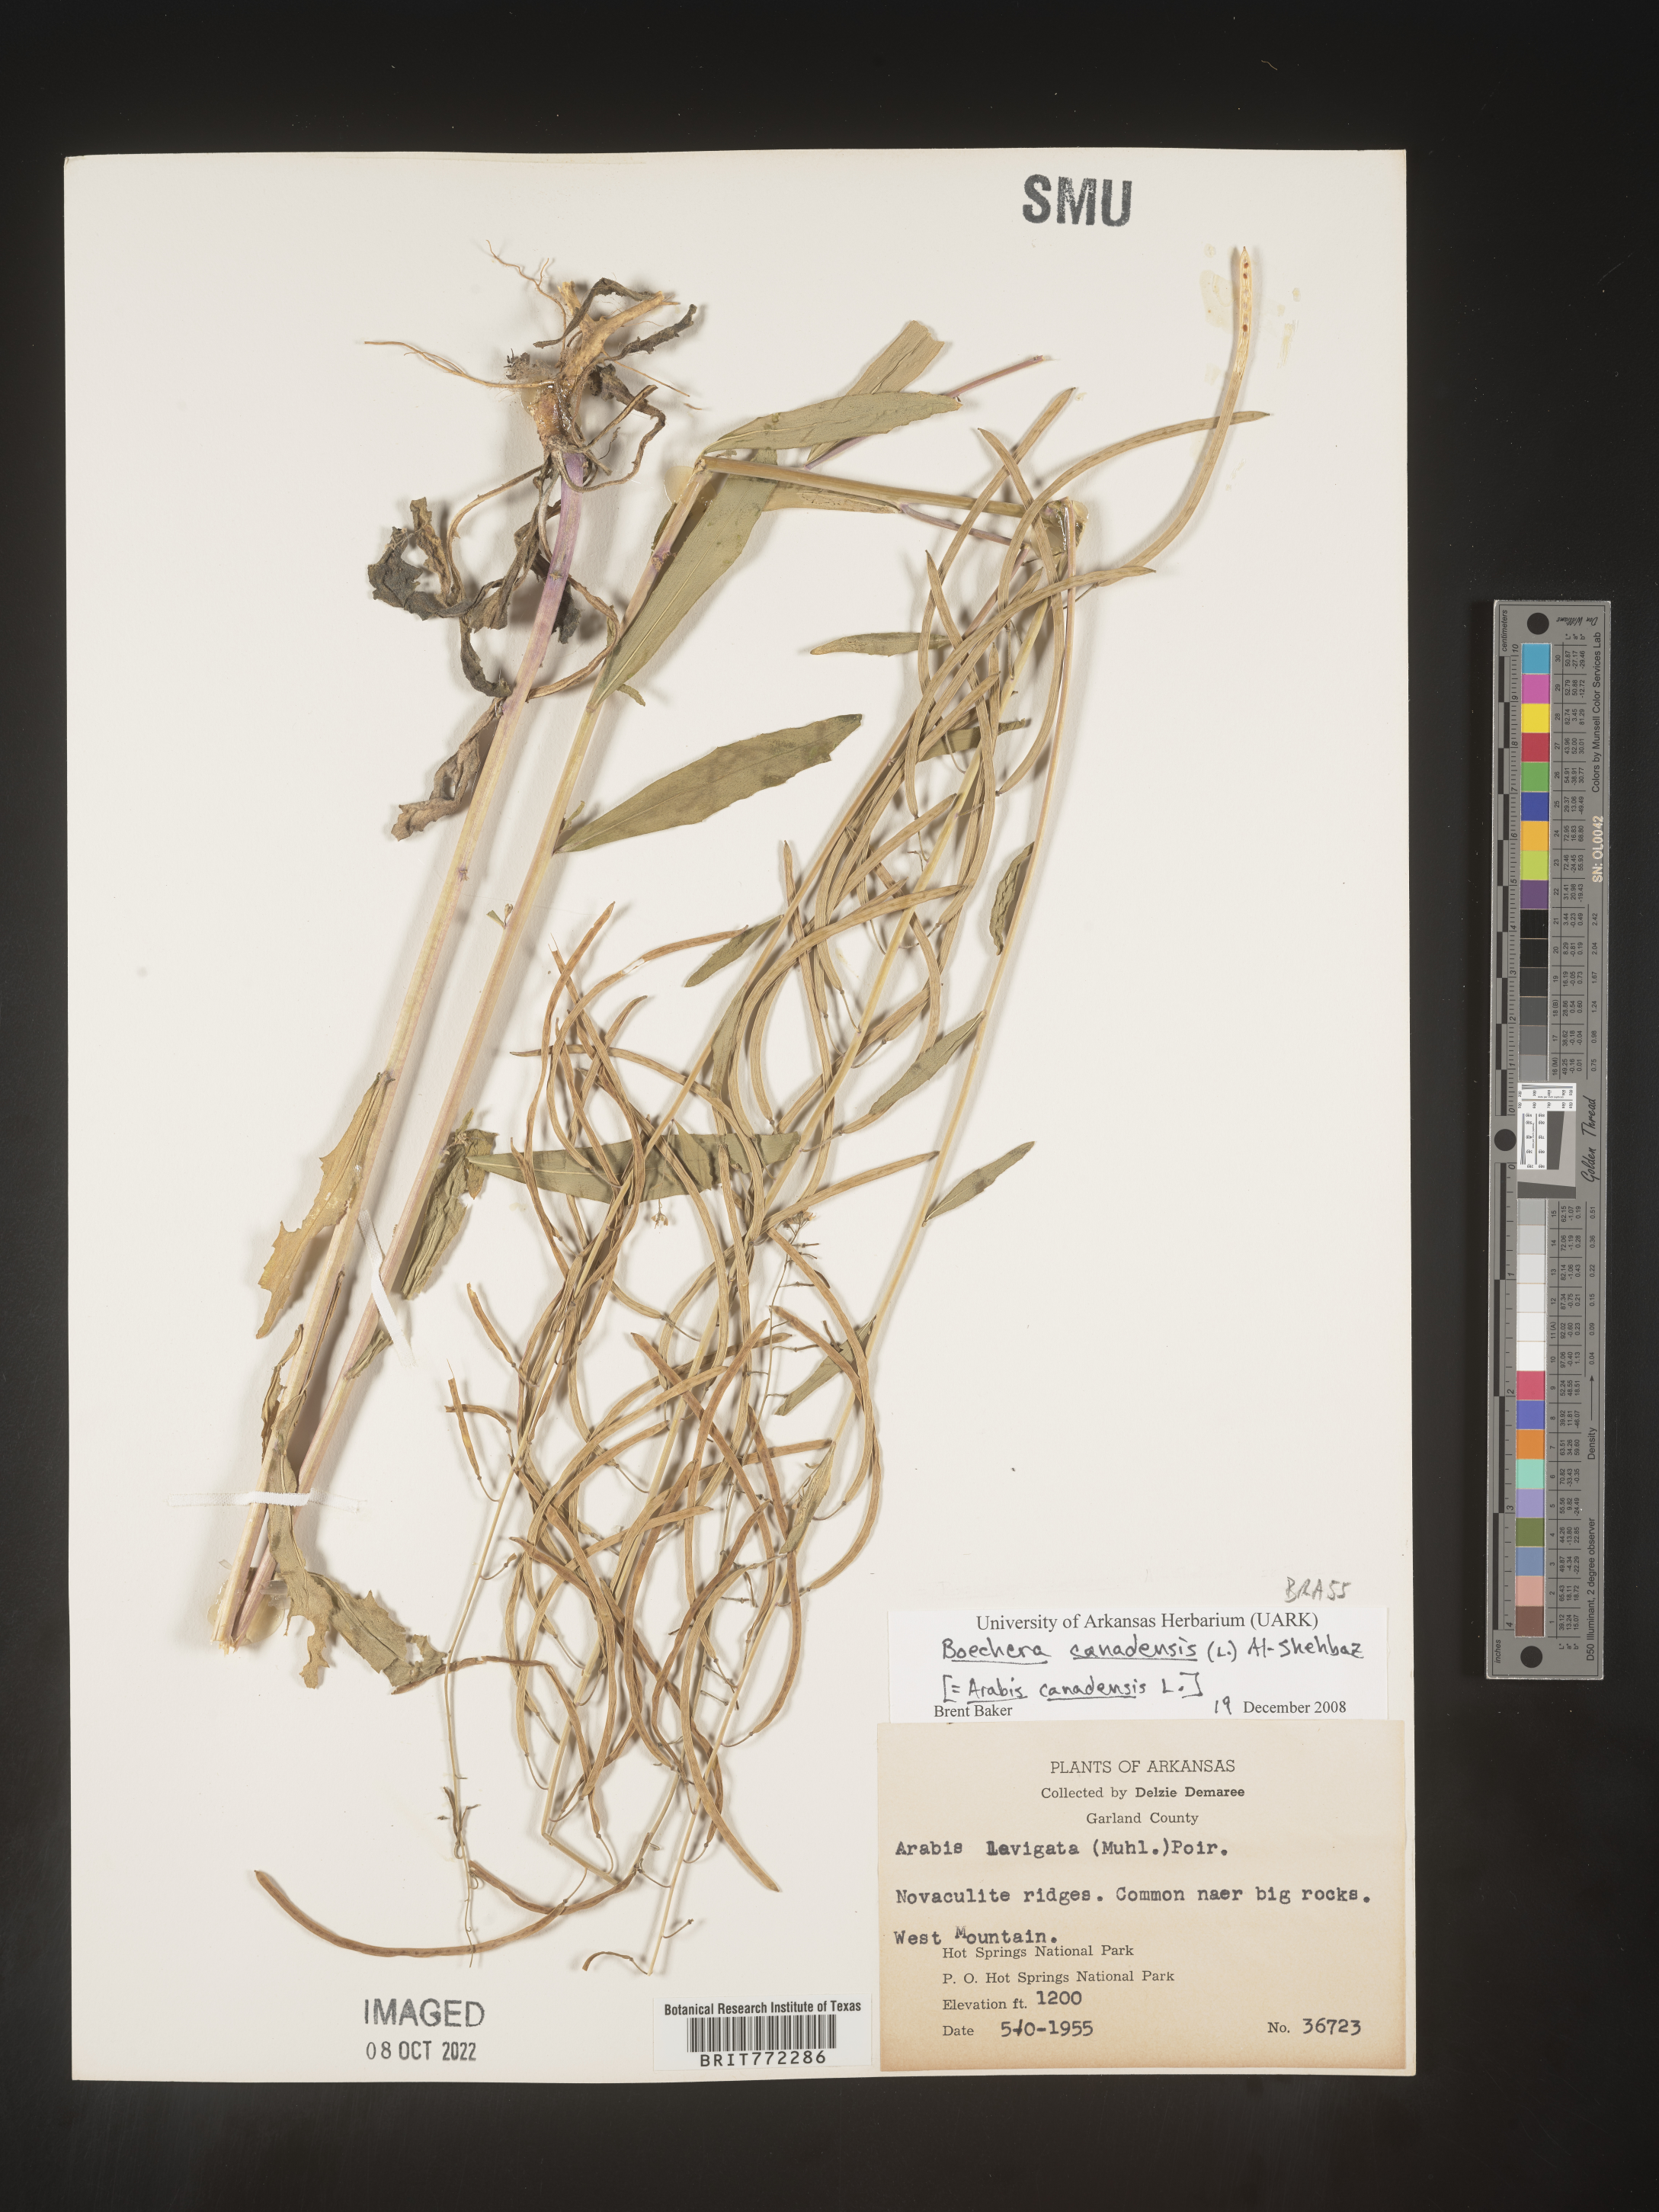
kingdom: Plantae
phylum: Tracheophyta
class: Magnoliopsida
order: Brassicales
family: Brassicaceae
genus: Boechera
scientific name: Boechera
